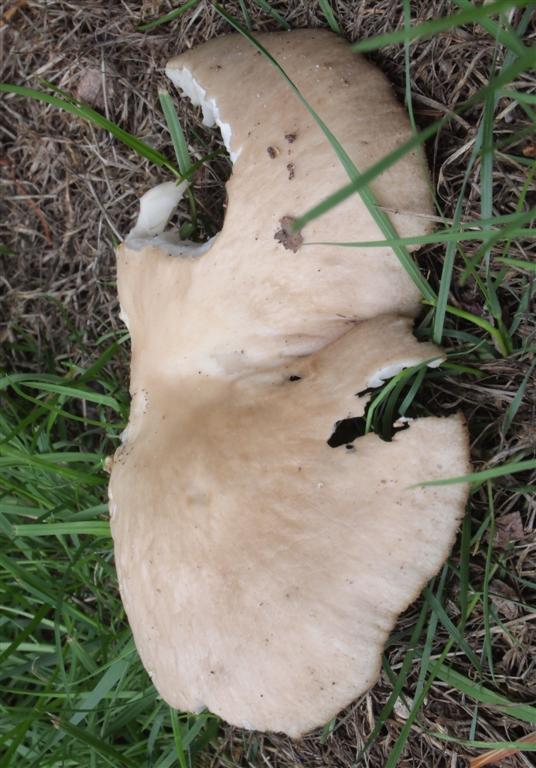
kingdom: Fungi
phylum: Basidiomycota
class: Agaricomycetes
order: Agaricales
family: Pleurotaceae
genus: Pleurotus
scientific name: Pleurotus pulmonarius
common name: sommer-østershat
